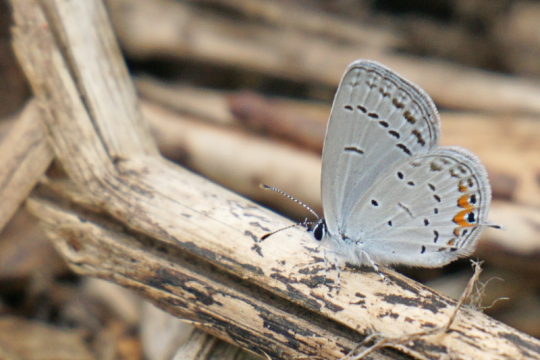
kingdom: Animalia
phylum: Arthropoda
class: Insecta
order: Lepidoptera
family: Lycaenidae
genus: Elkalyce
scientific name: Elkalyce comyntas
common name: Eastern Tailed-Blue
